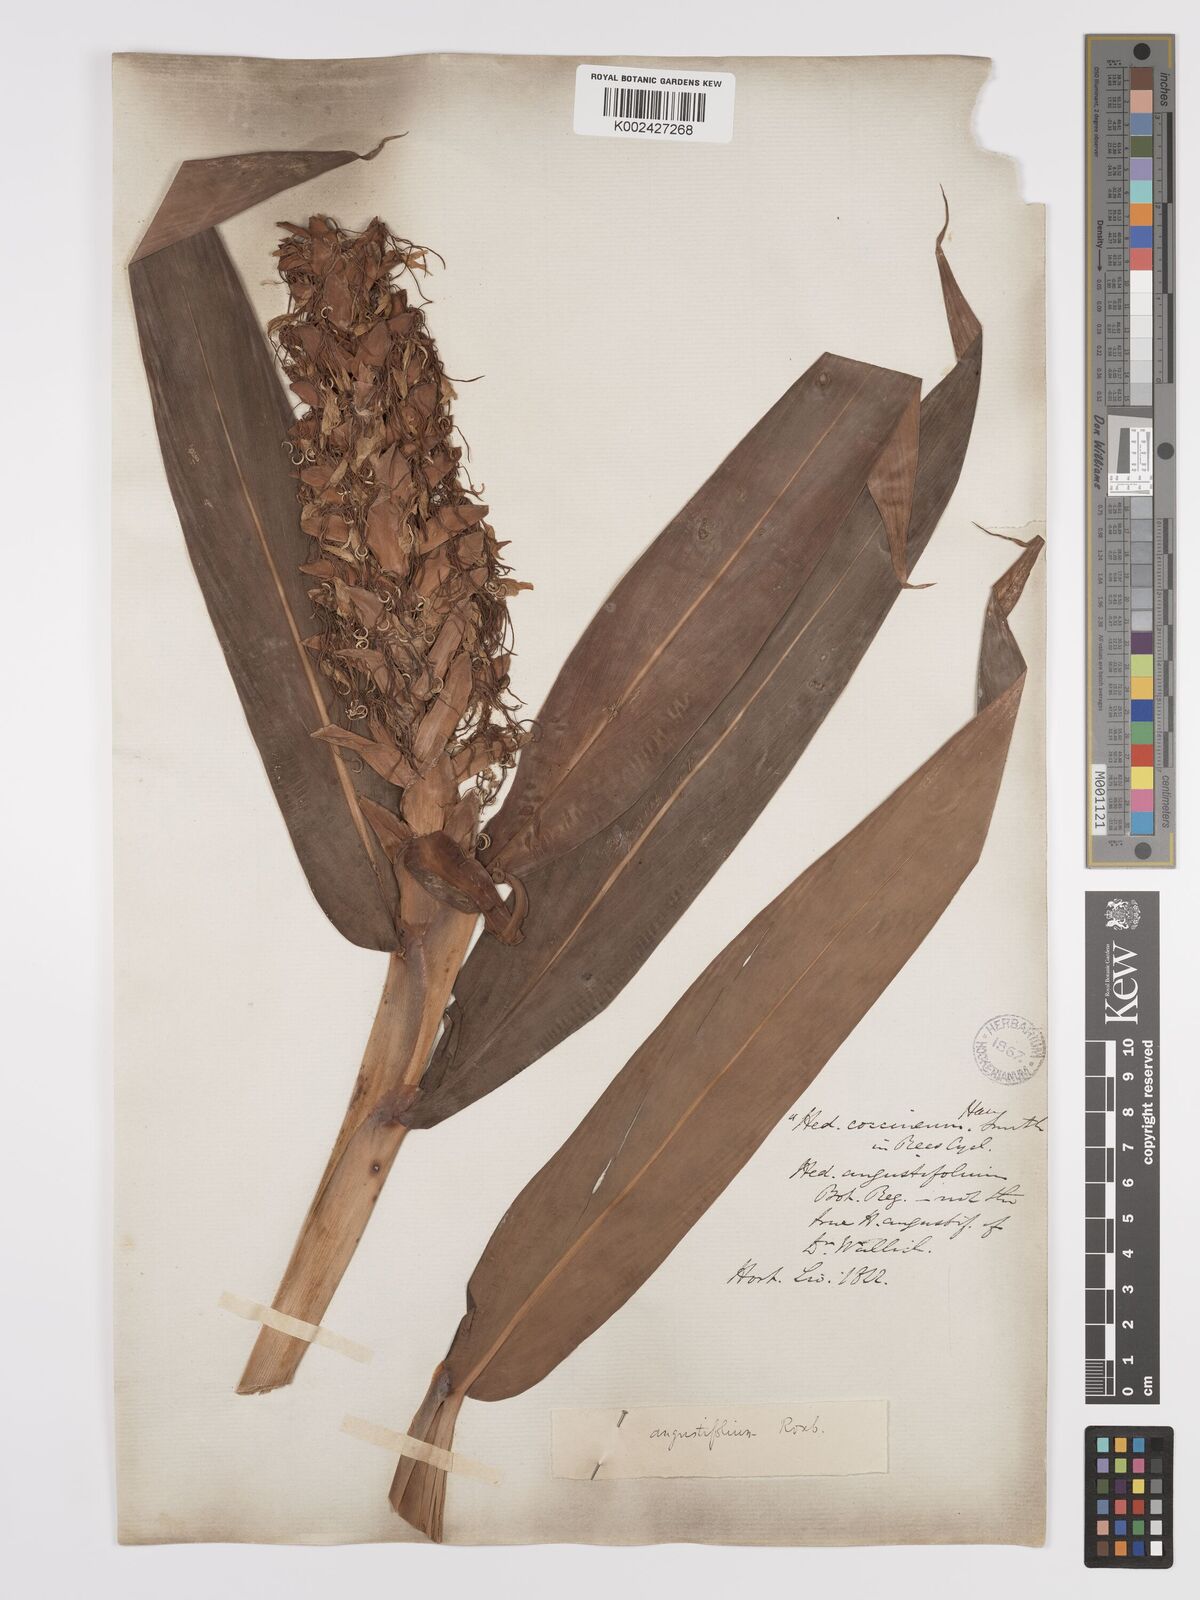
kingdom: Plantae
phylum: Tracheophyta
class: Liliopsida
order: Zingiberales
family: Zingiberaceae
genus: Hedychium
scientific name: Hedychium coccineum
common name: Red ginger-lily
